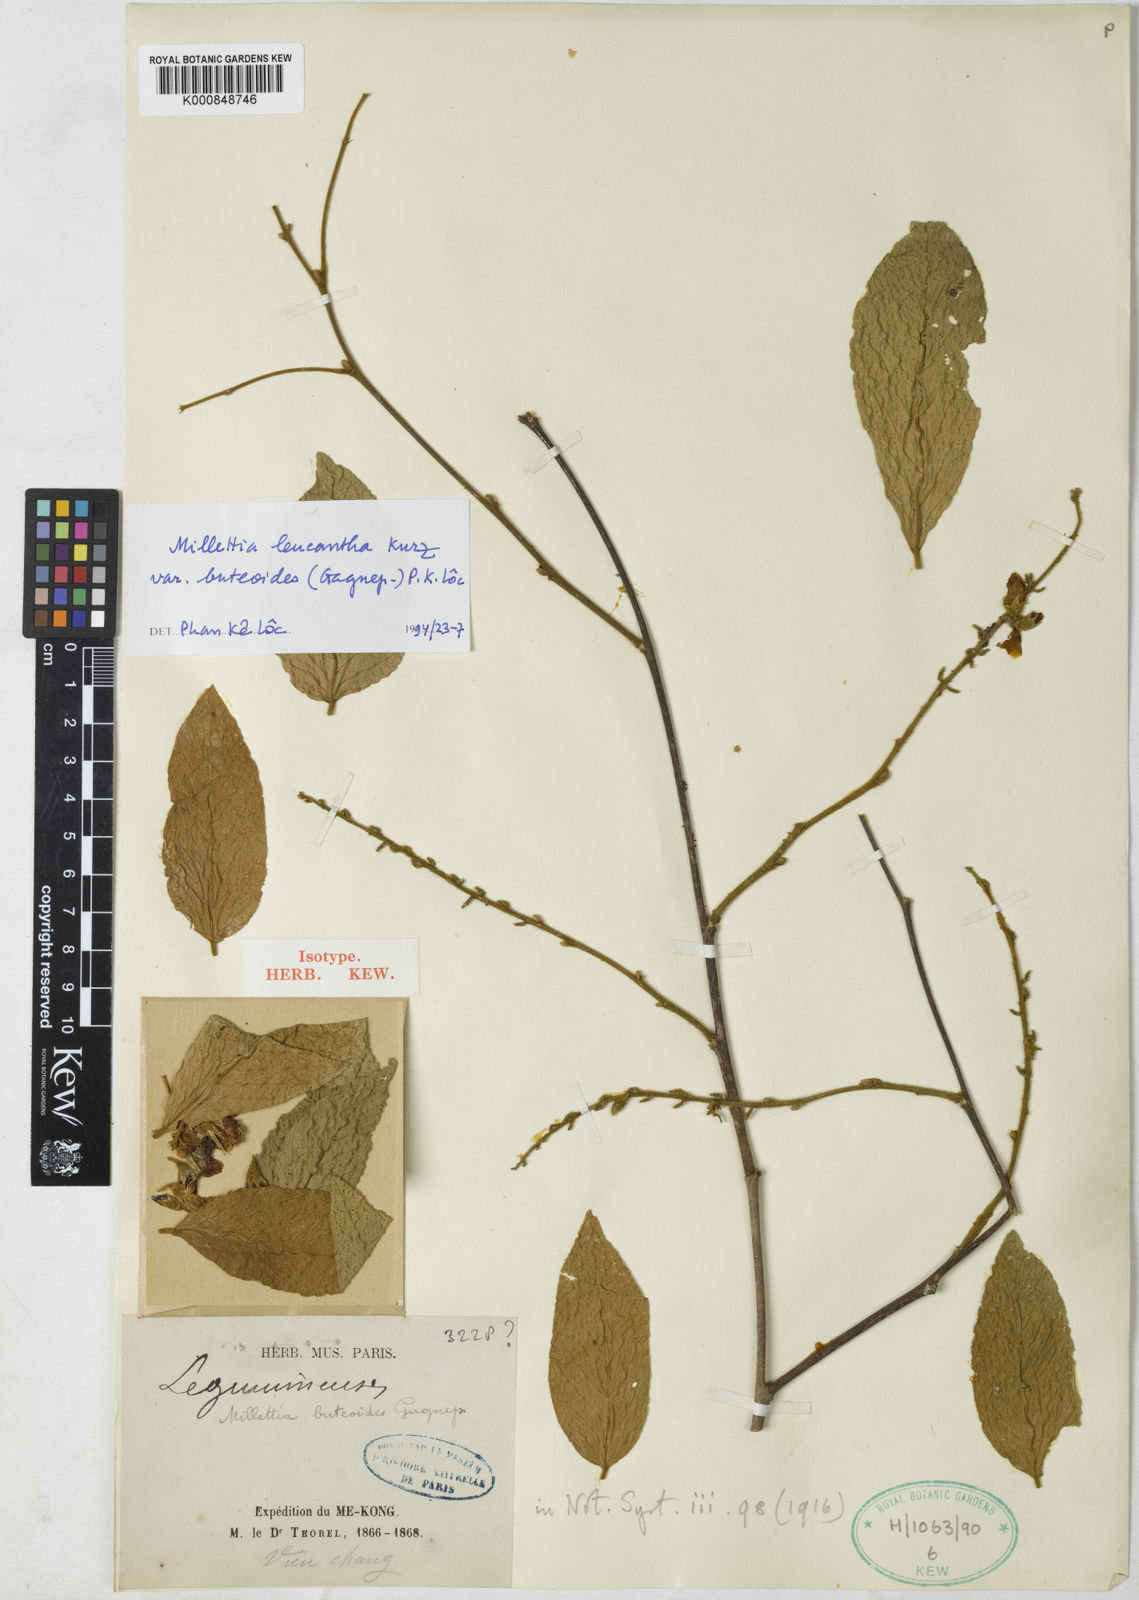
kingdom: Plantae
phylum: Tracheophyta
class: Magnoliopsida
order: Fabales
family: Fabaceae
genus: Imbralyx
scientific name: Imbralyx leucanthus
